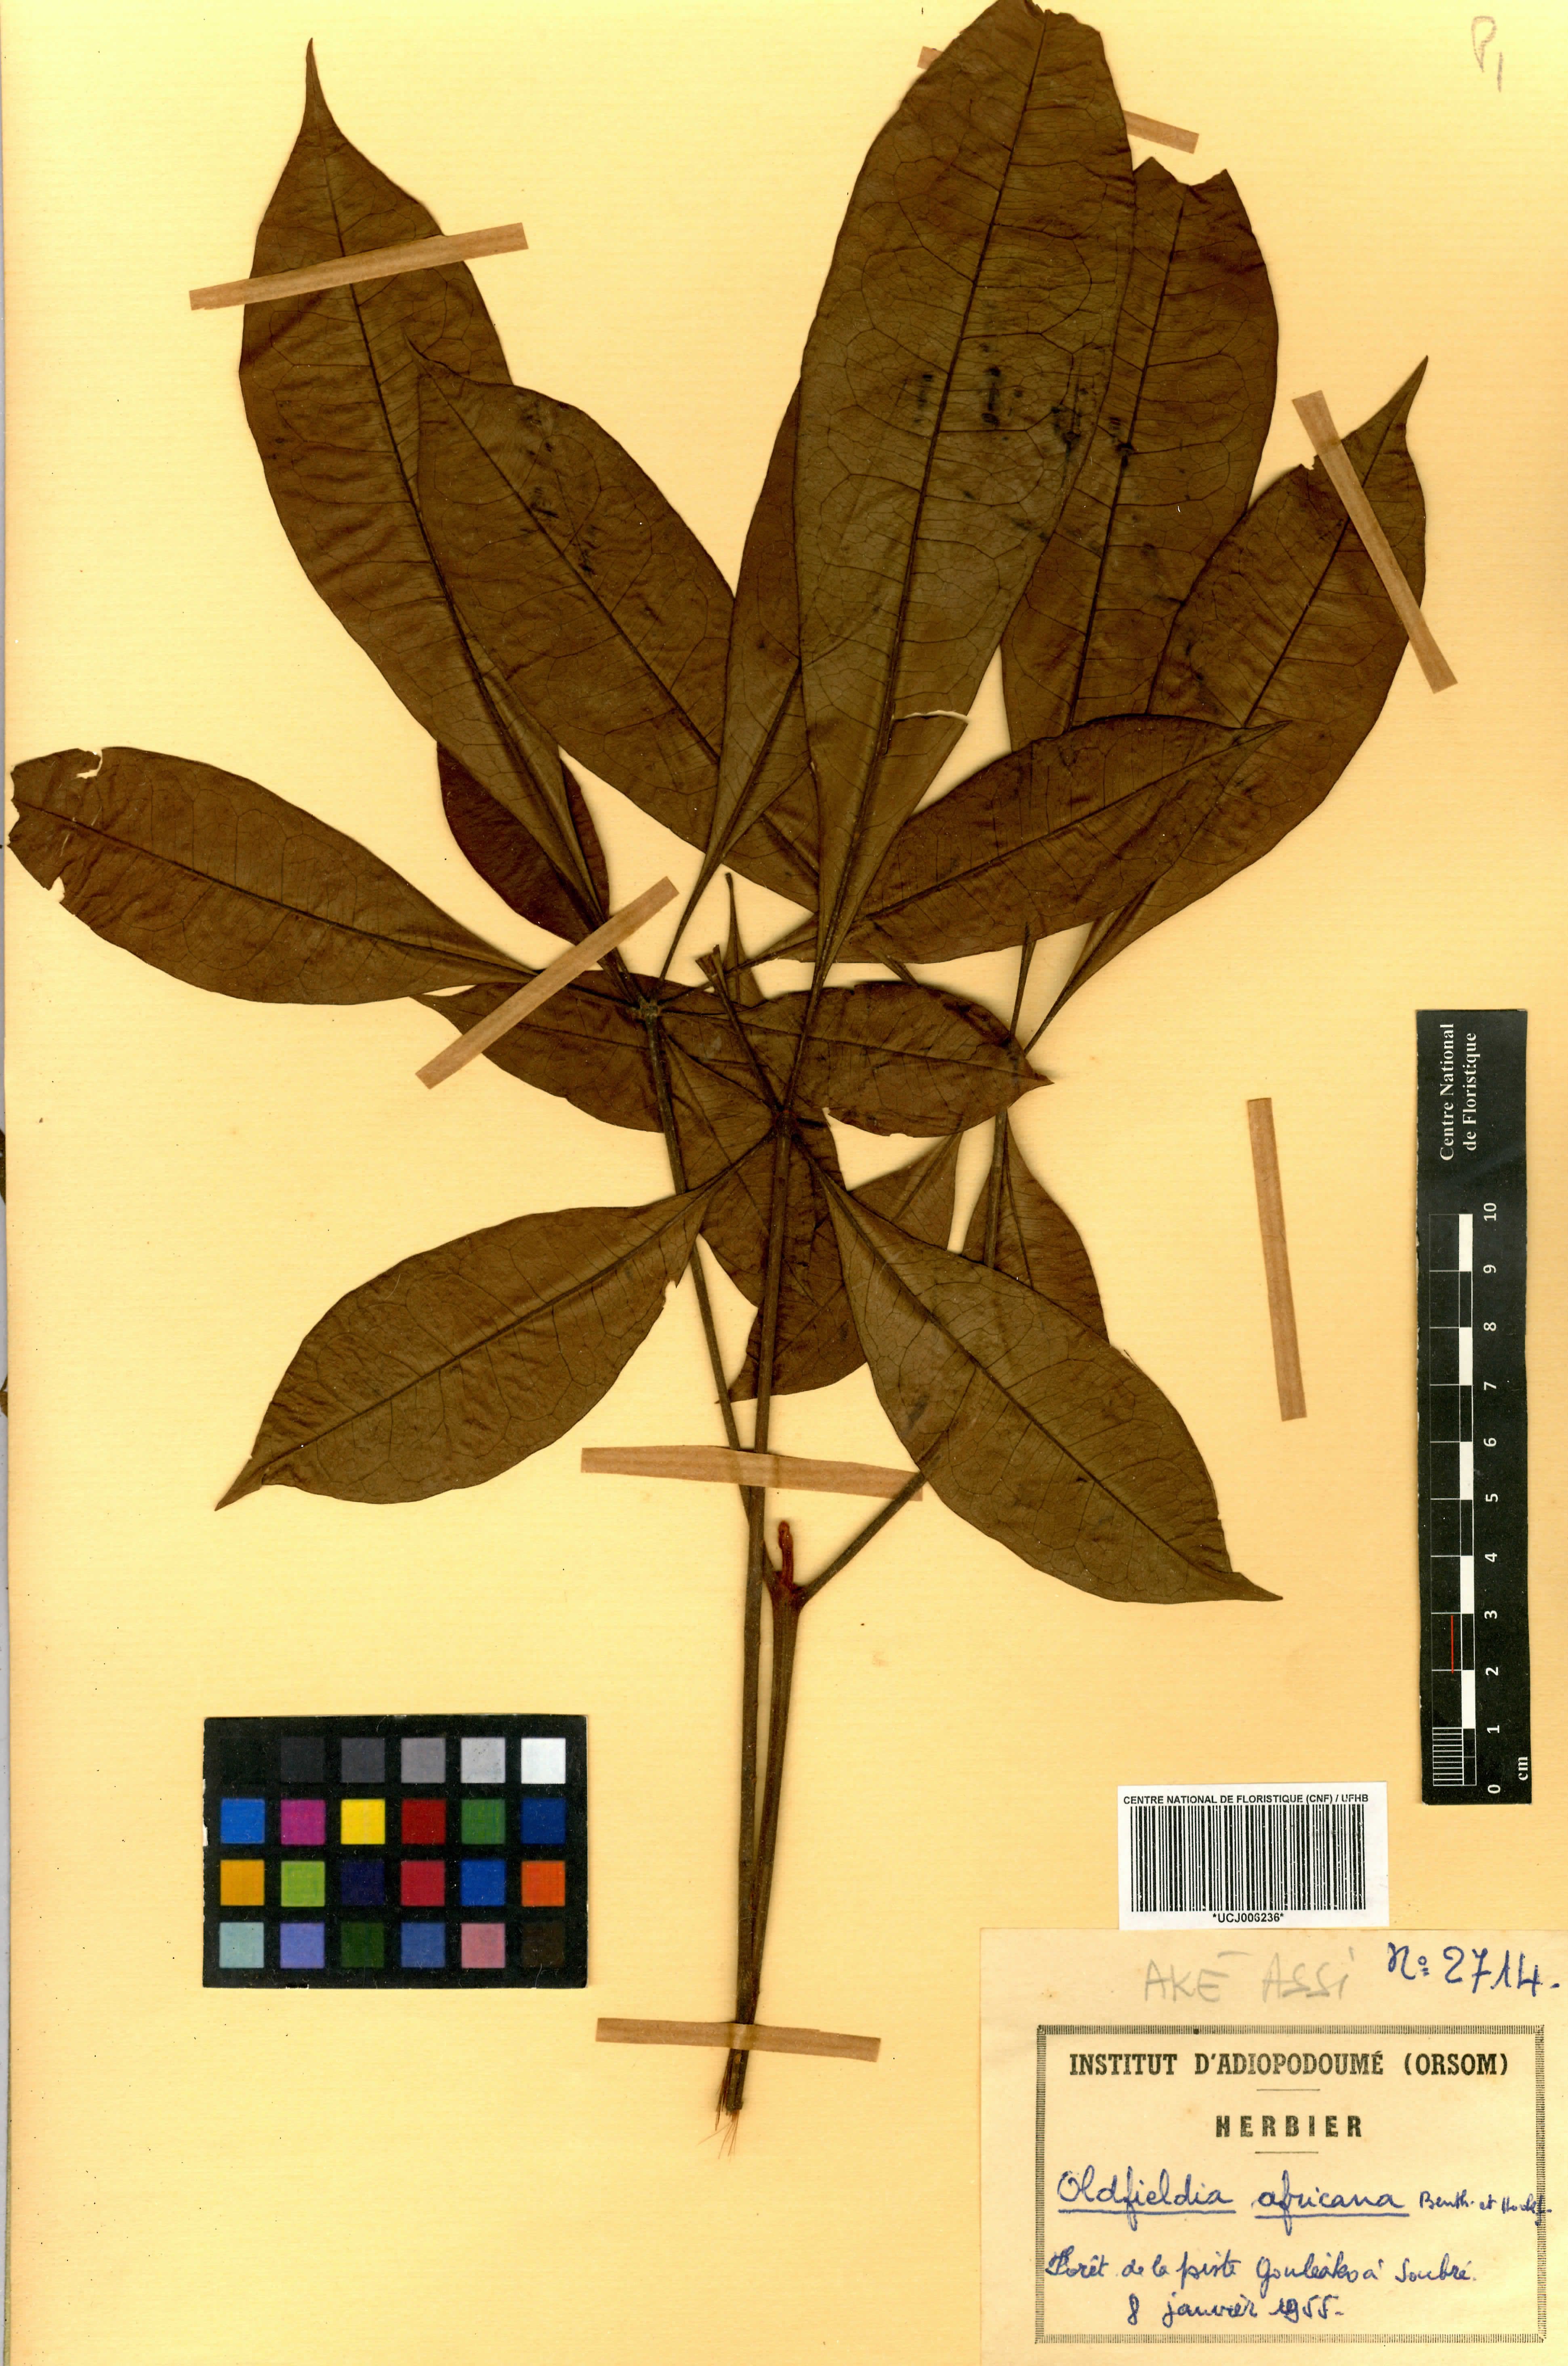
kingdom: Plantae
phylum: Tracheophyta
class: Magnoliopsida
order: Malpighiales
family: Picrodendraceae
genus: Oldfieldia
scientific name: Oldfieldia africana
